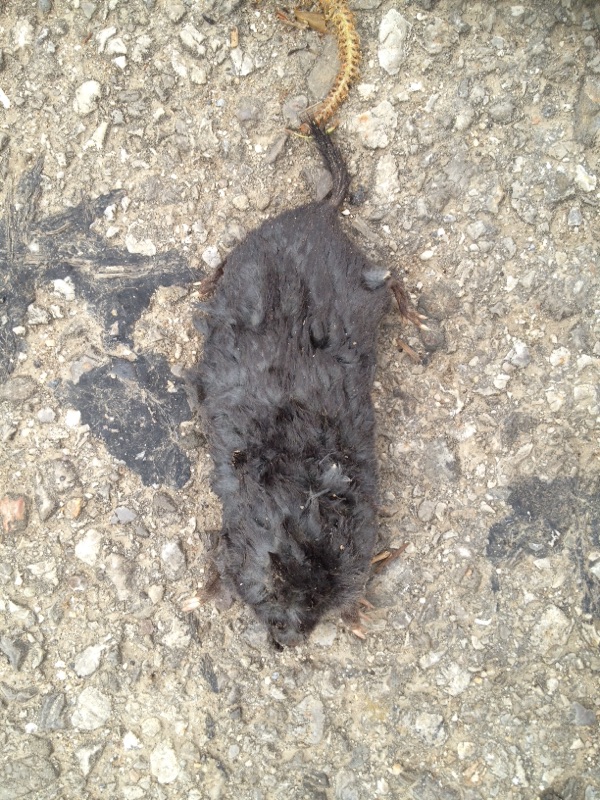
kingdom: Animalia
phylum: Chordata
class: Mammalia
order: Soricomorpha
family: Talpidae
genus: Talpa
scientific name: Talpa europaea
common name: European mole
